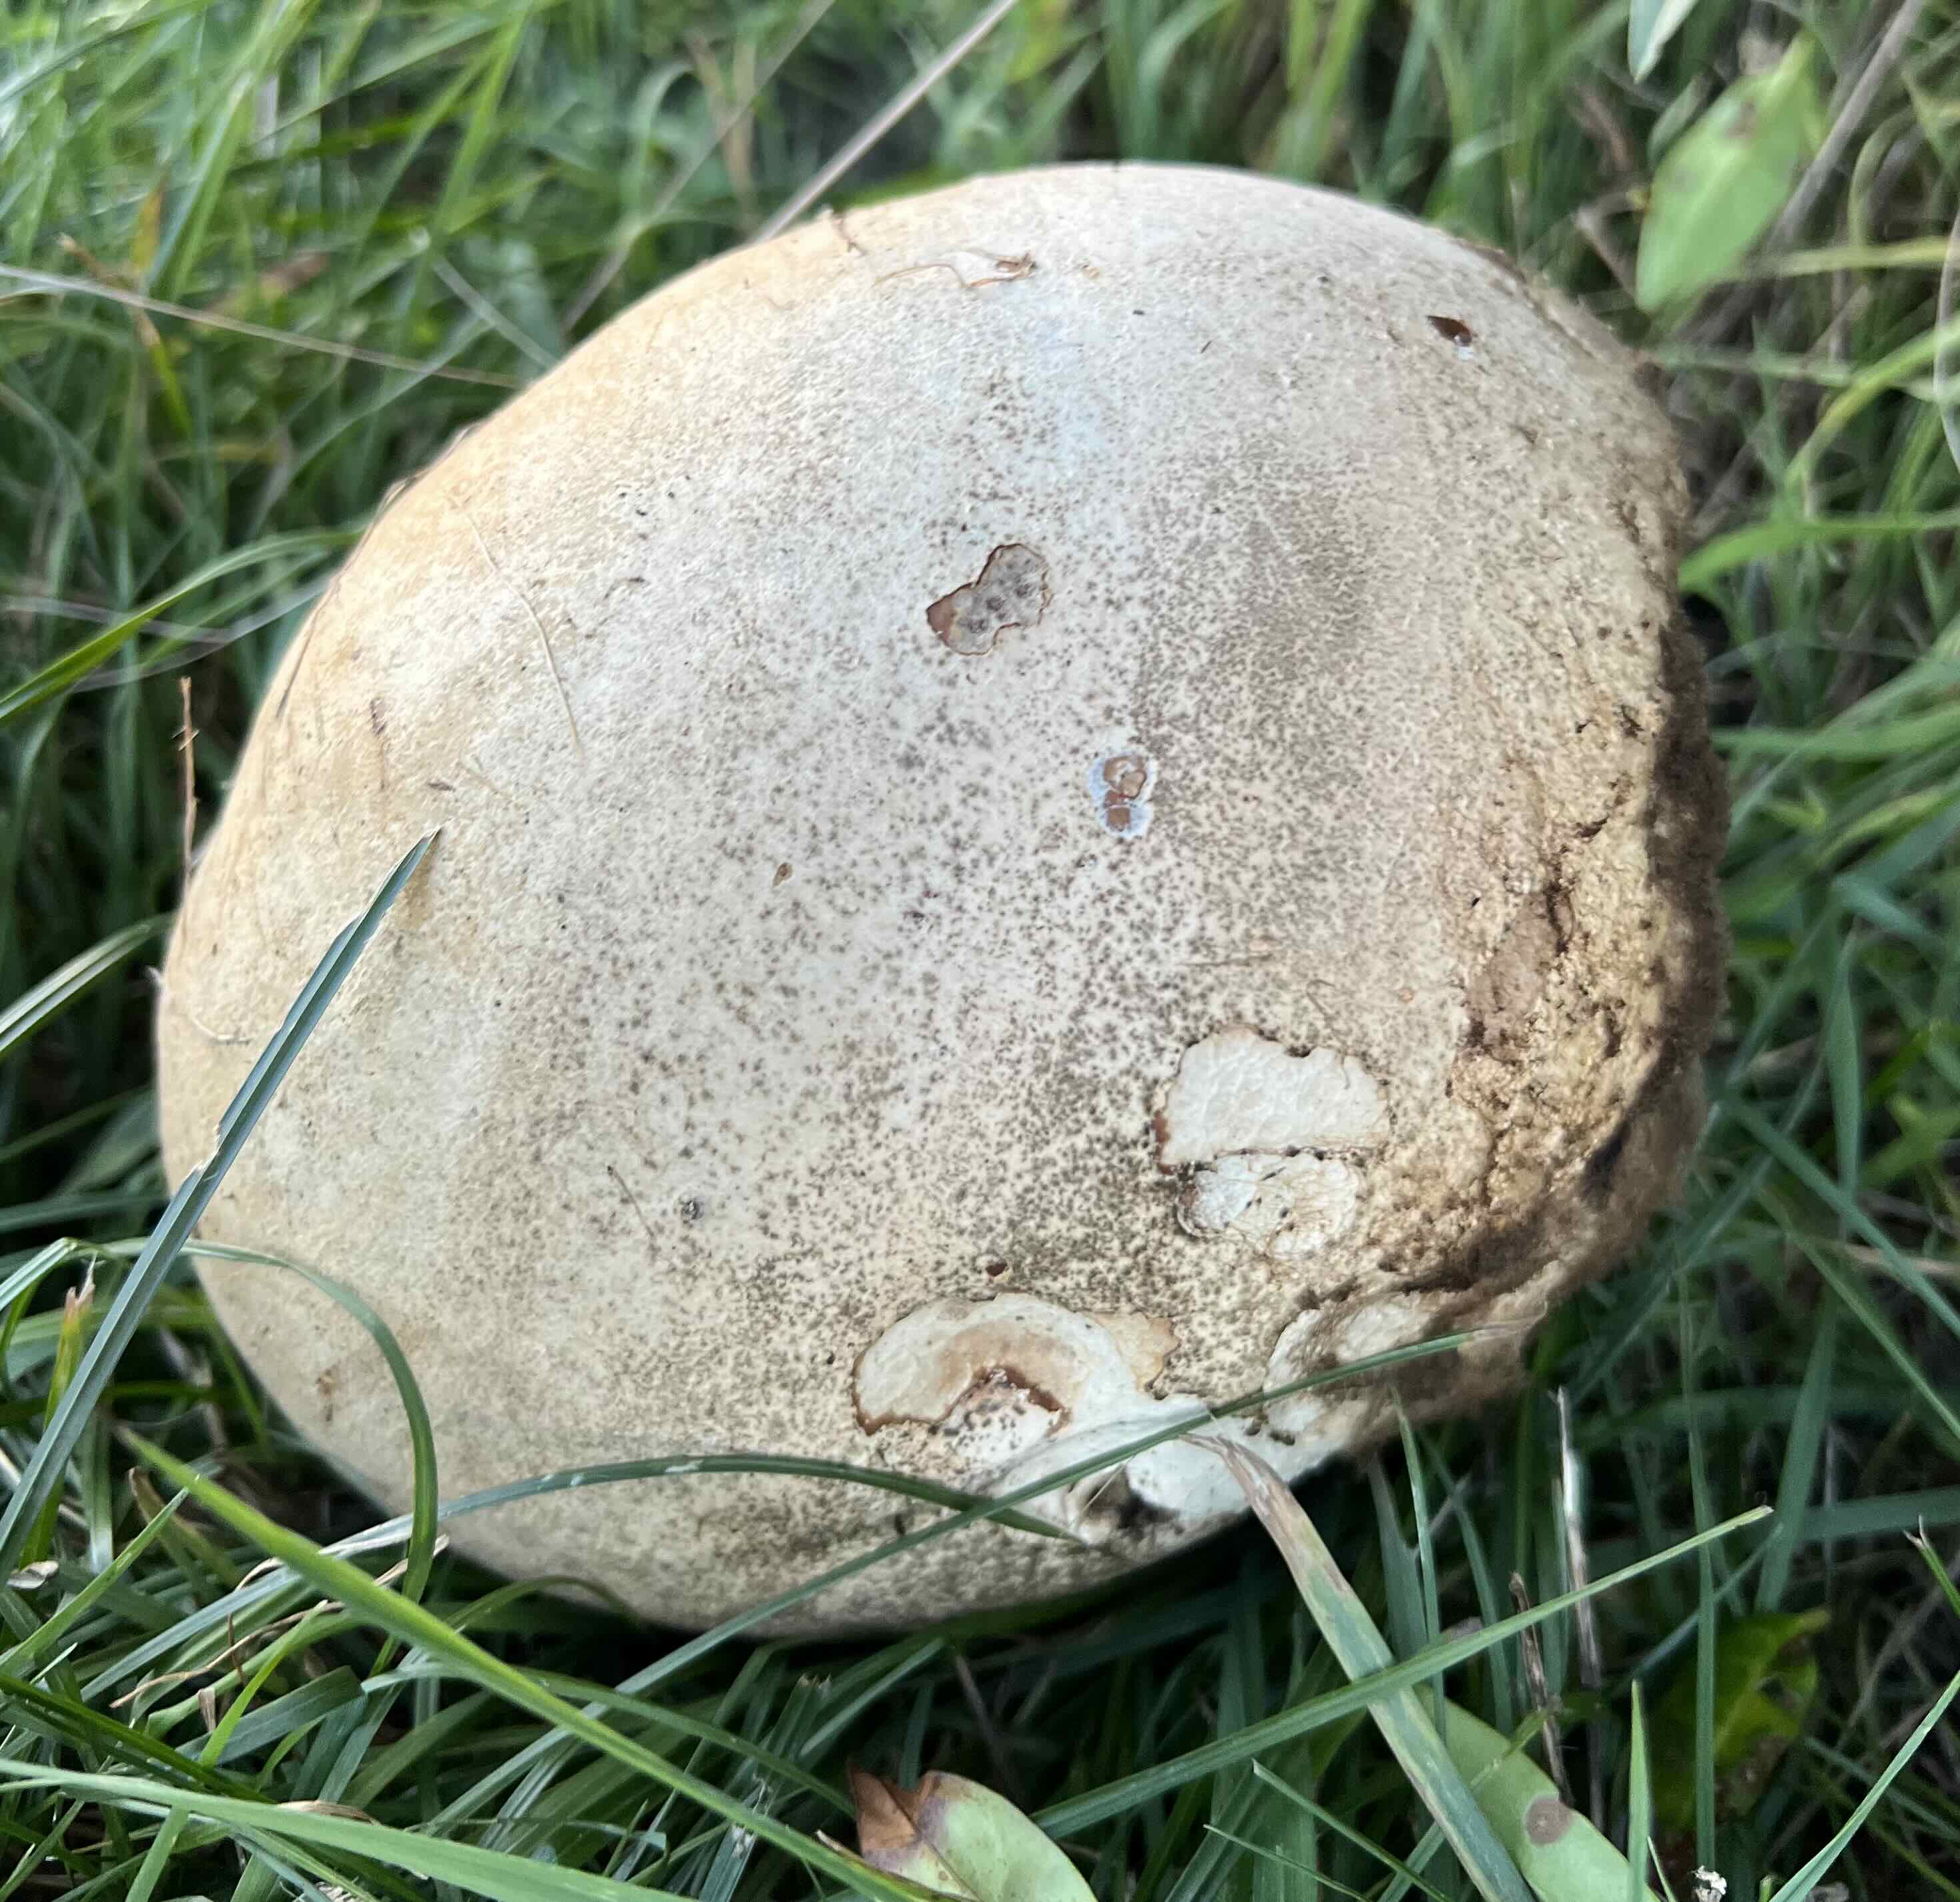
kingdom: Fungi
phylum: Basidiomycota
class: Agaricomycetes
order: Agaricales
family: Lycoperdaceae
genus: Calvatia
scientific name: Calvatia gigantea
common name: kæmpestøvbold
